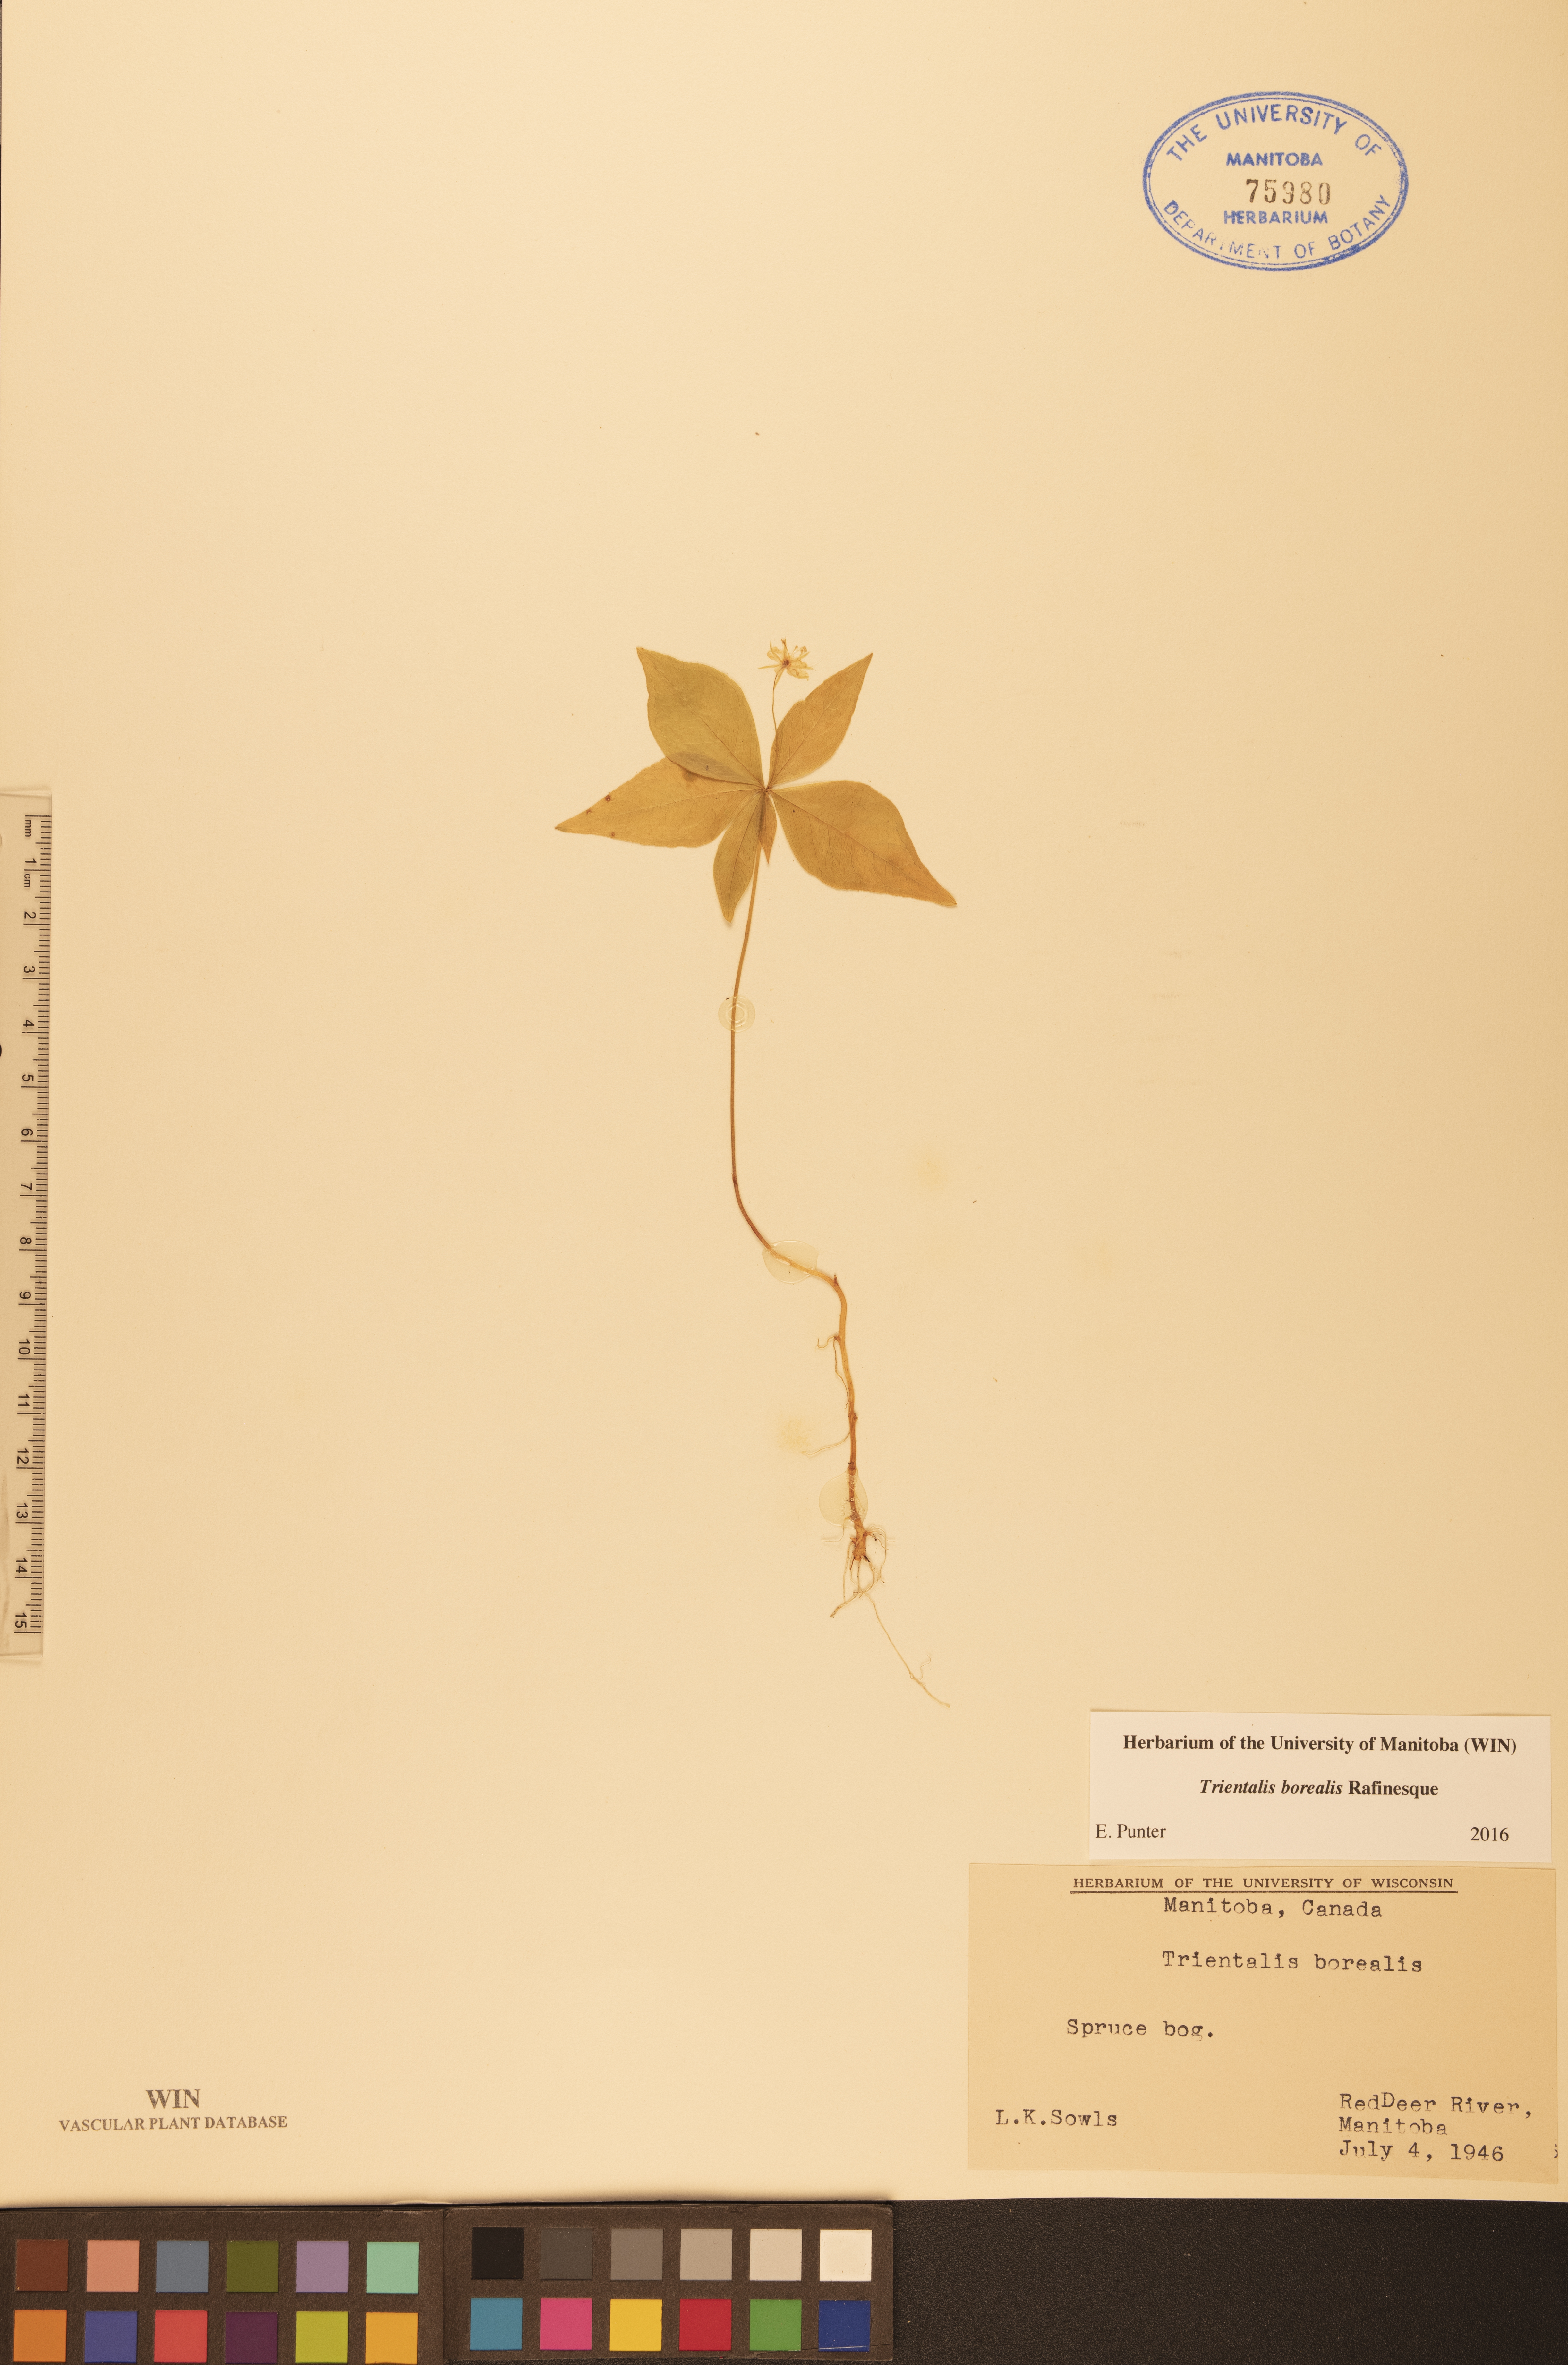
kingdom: Plantae
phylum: Tracheophyta
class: Magnoliopsida
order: Ericales
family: Primulaceae
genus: Lysimachia
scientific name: Lysimachia borealis
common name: American starflower
